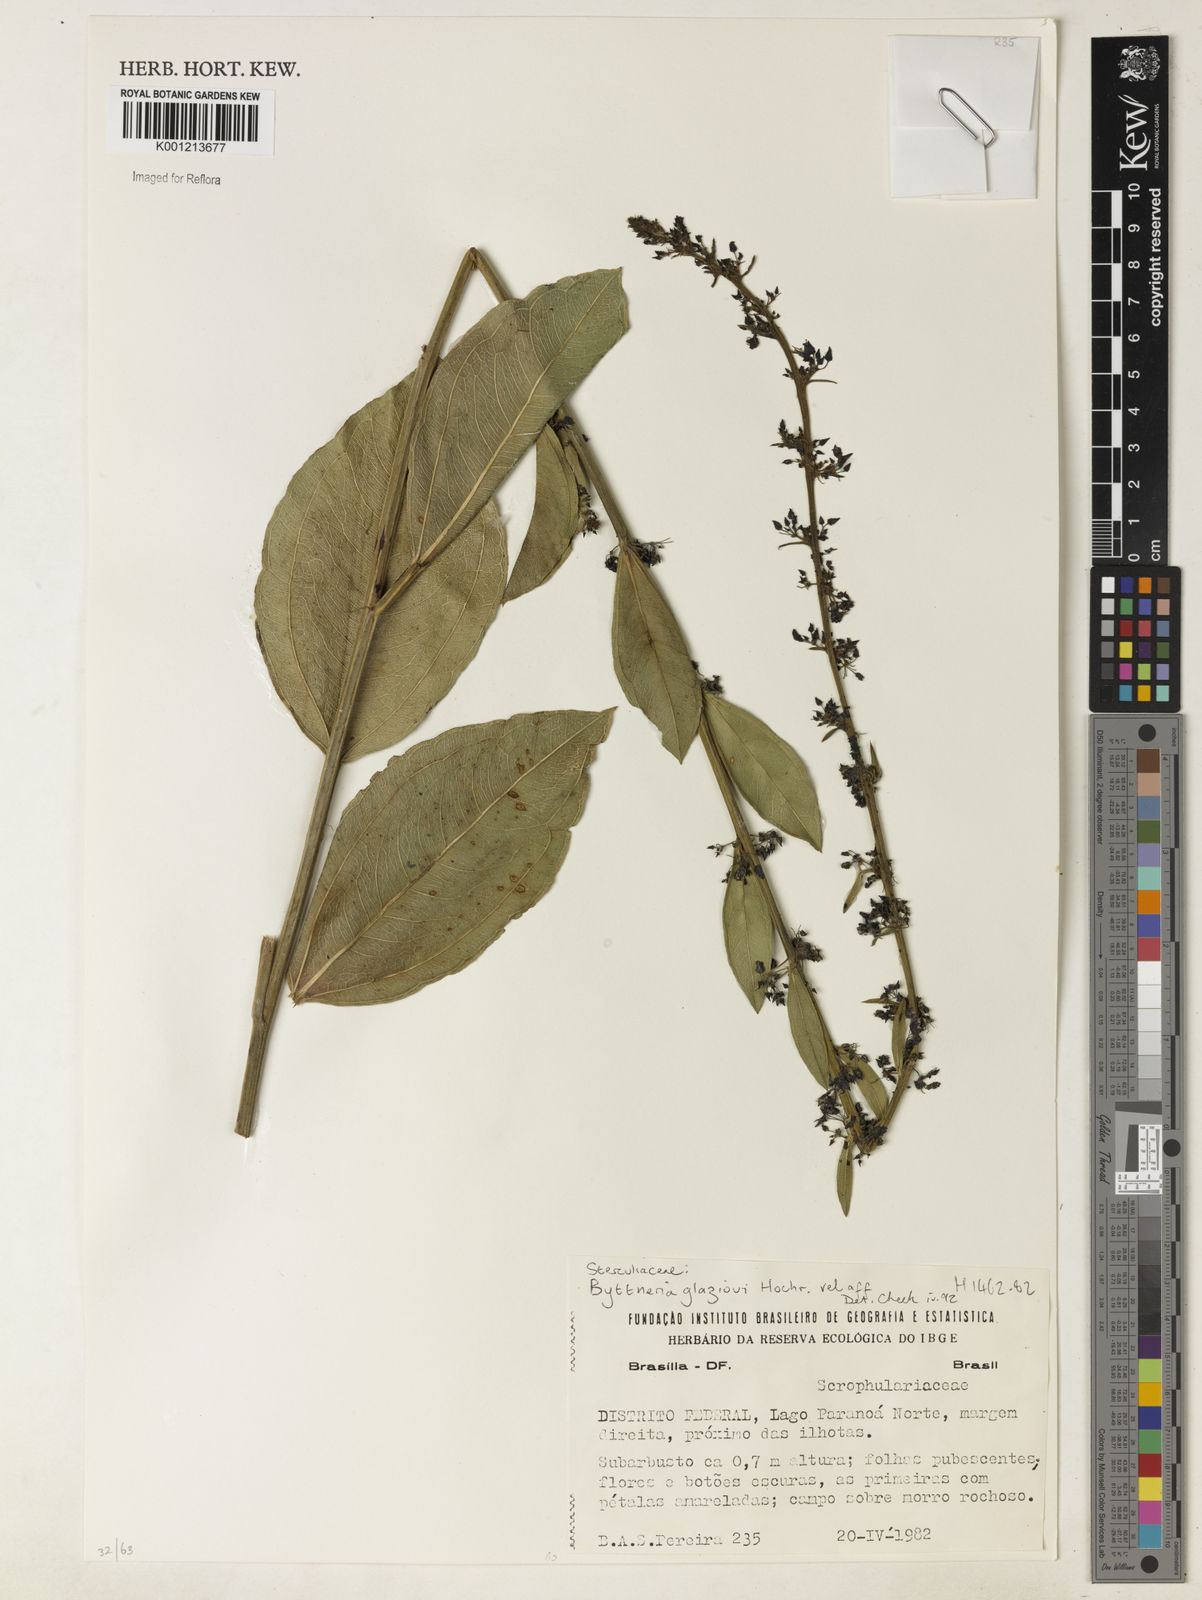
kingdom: Plantae
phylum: Tracheophyta
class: Magnoliopsida
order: Malvales
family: Malvaceae
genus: Byttneria
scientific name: Byttneria glazioui
